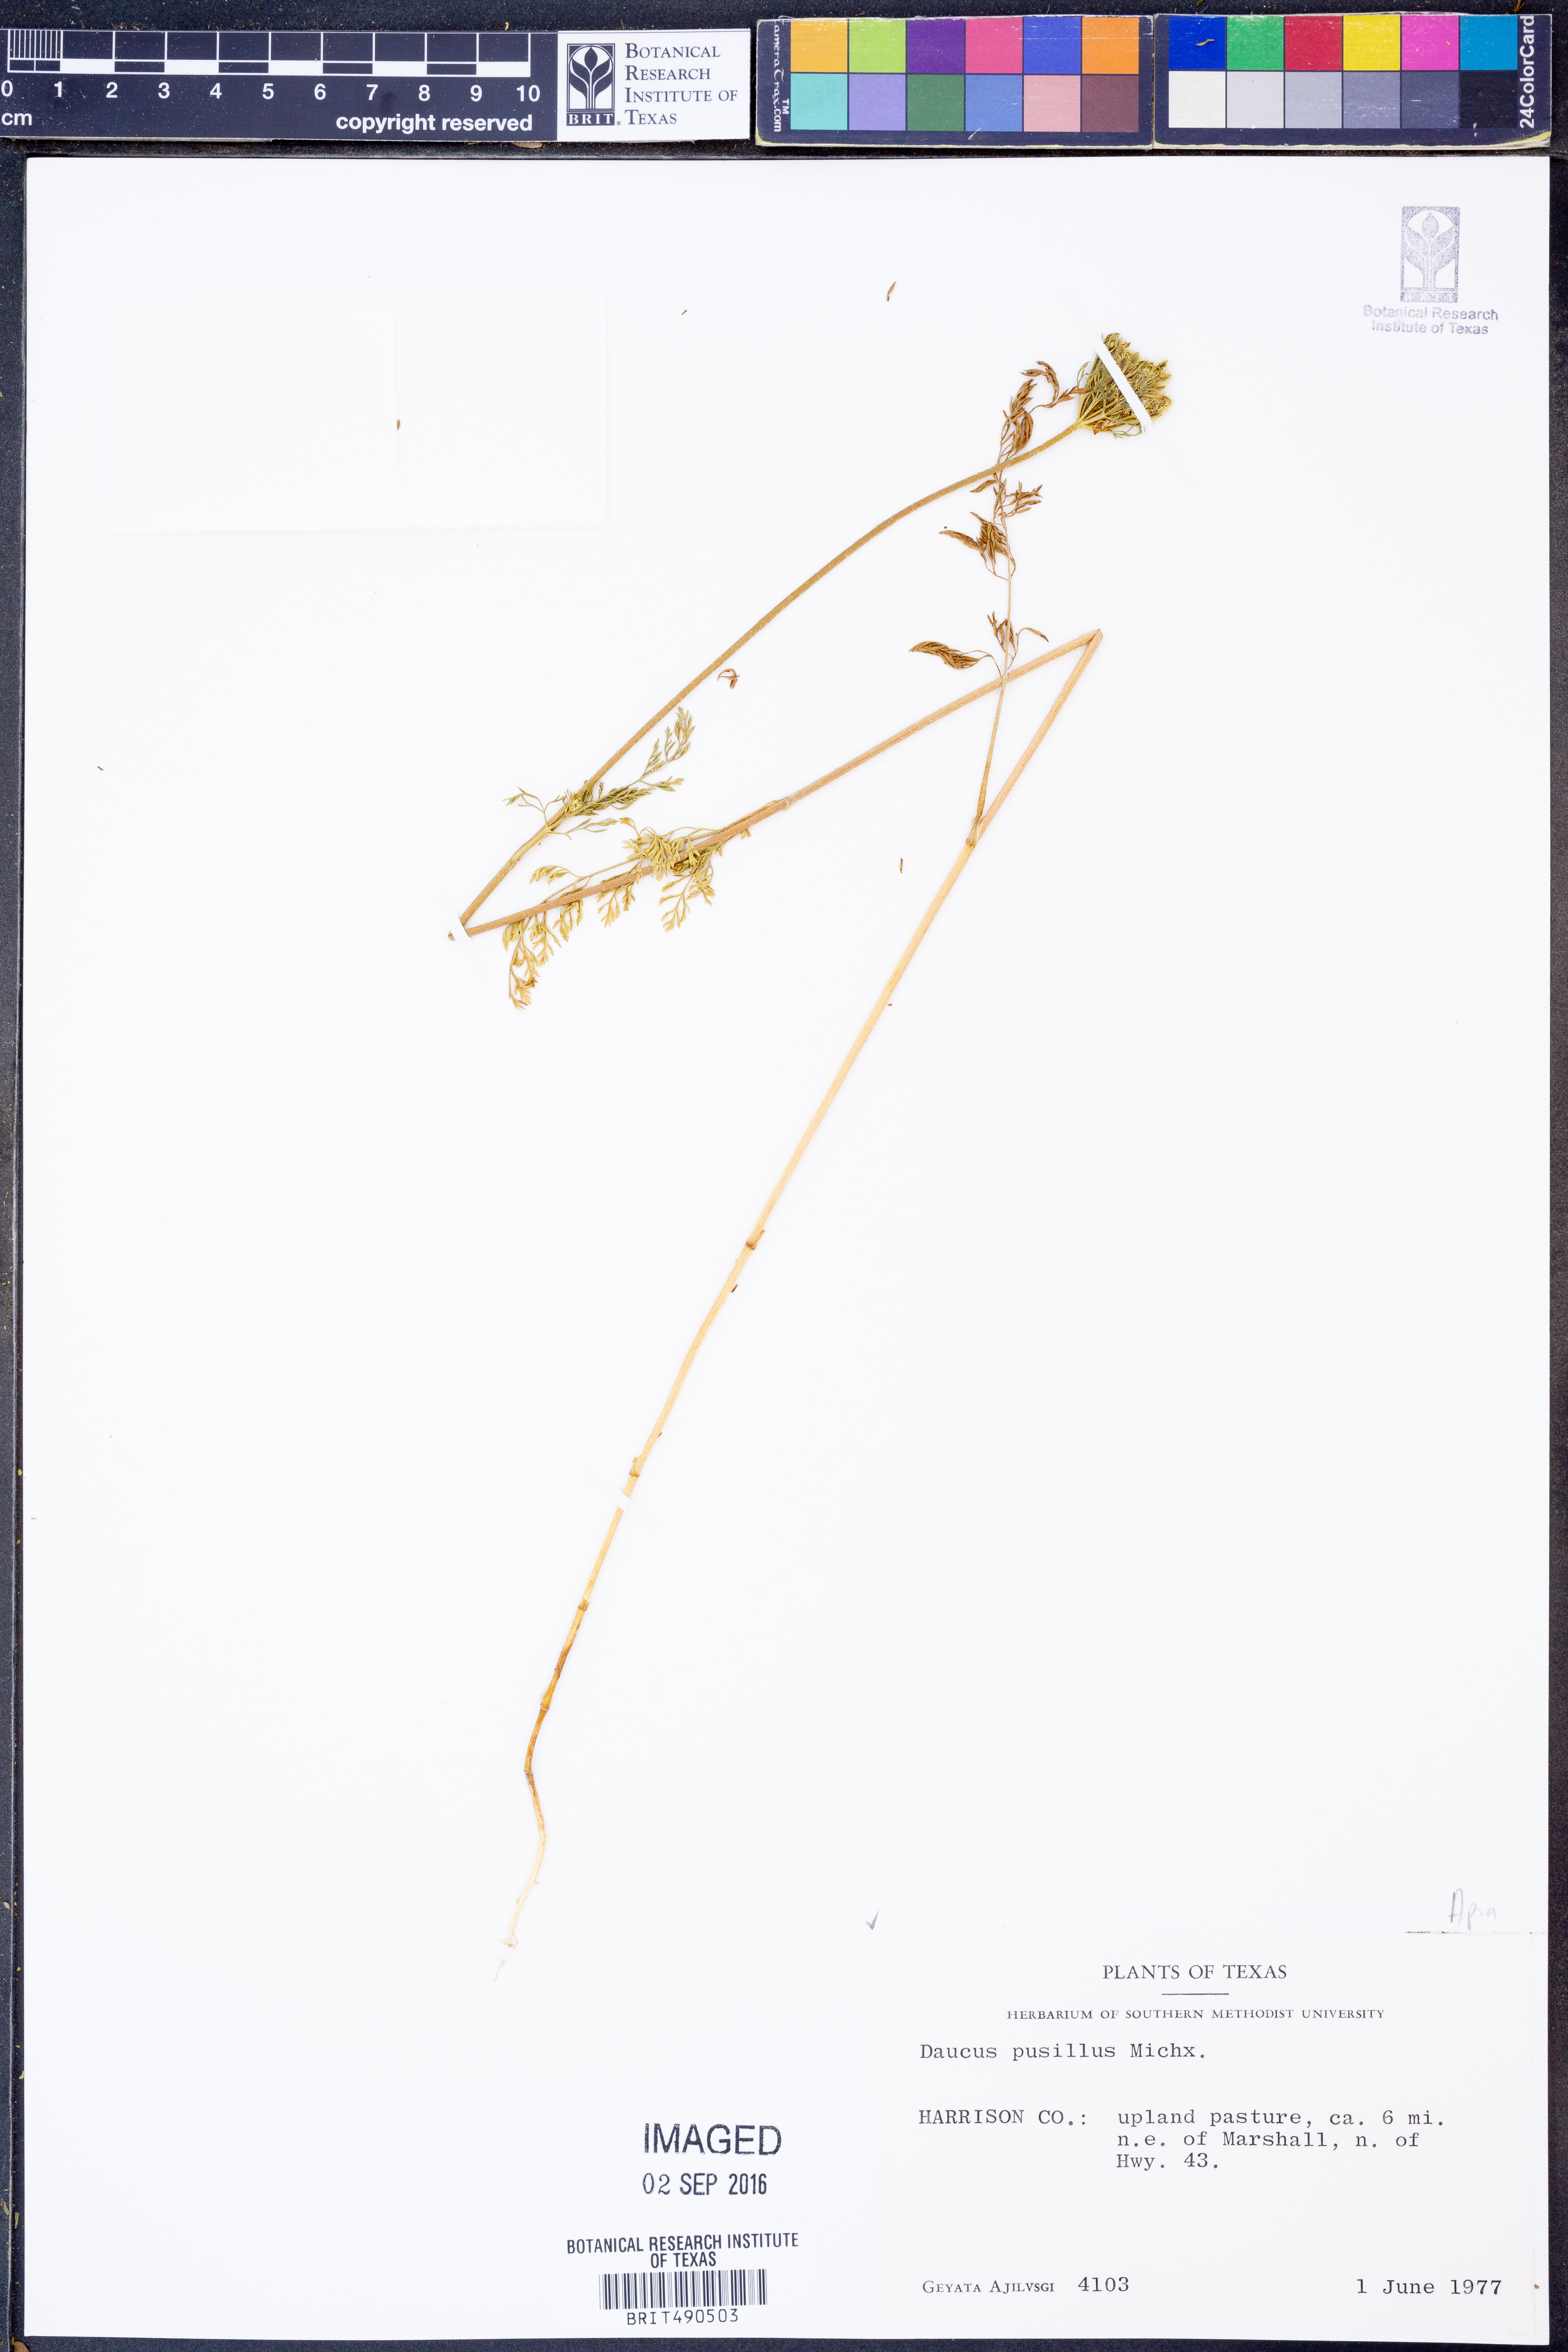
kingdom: Plantae
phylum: Tracheophyta
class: Magnoliopsida
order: Apiales
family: Apiaceae
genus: Daucus
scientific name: Daucus pusillus
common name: Southwest wild carrot
